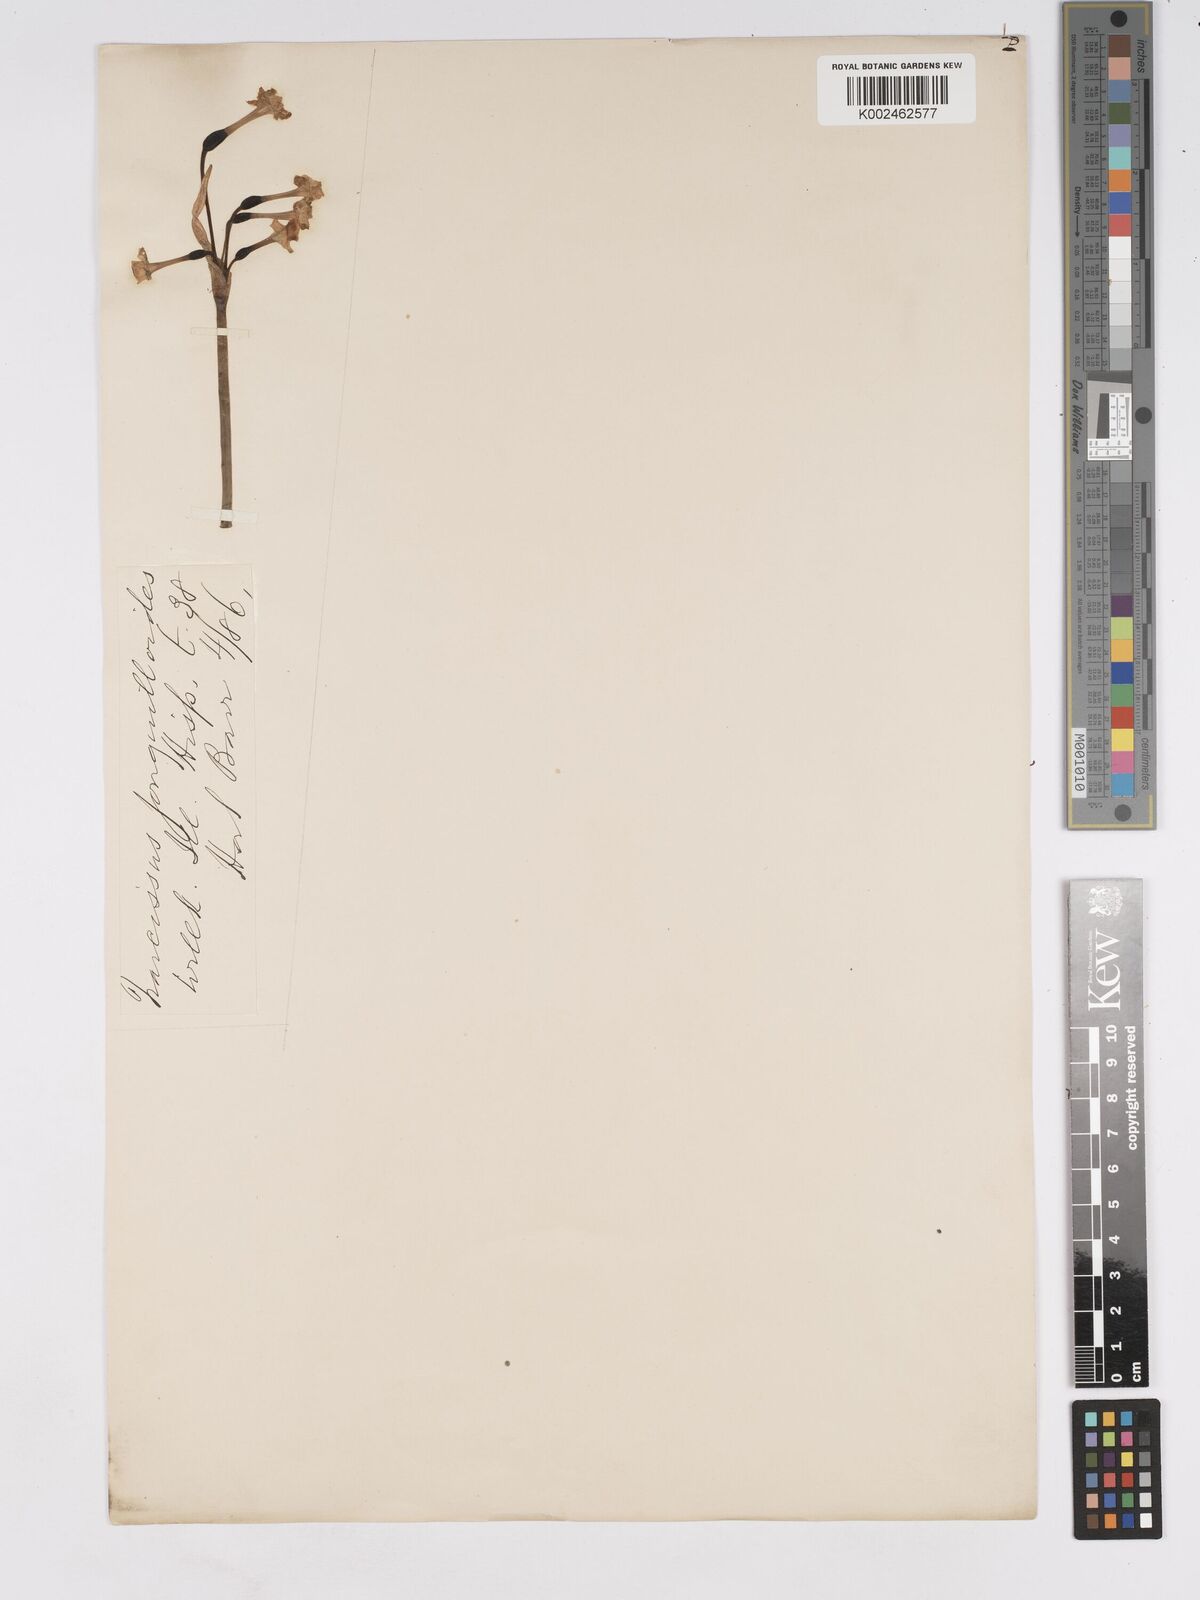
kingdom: Plantae
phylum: Tracheophyta
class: Liliopsida
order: Asparagales
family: Amaryllidaceae
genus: Narcissus
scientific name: Narcissus willkommii
